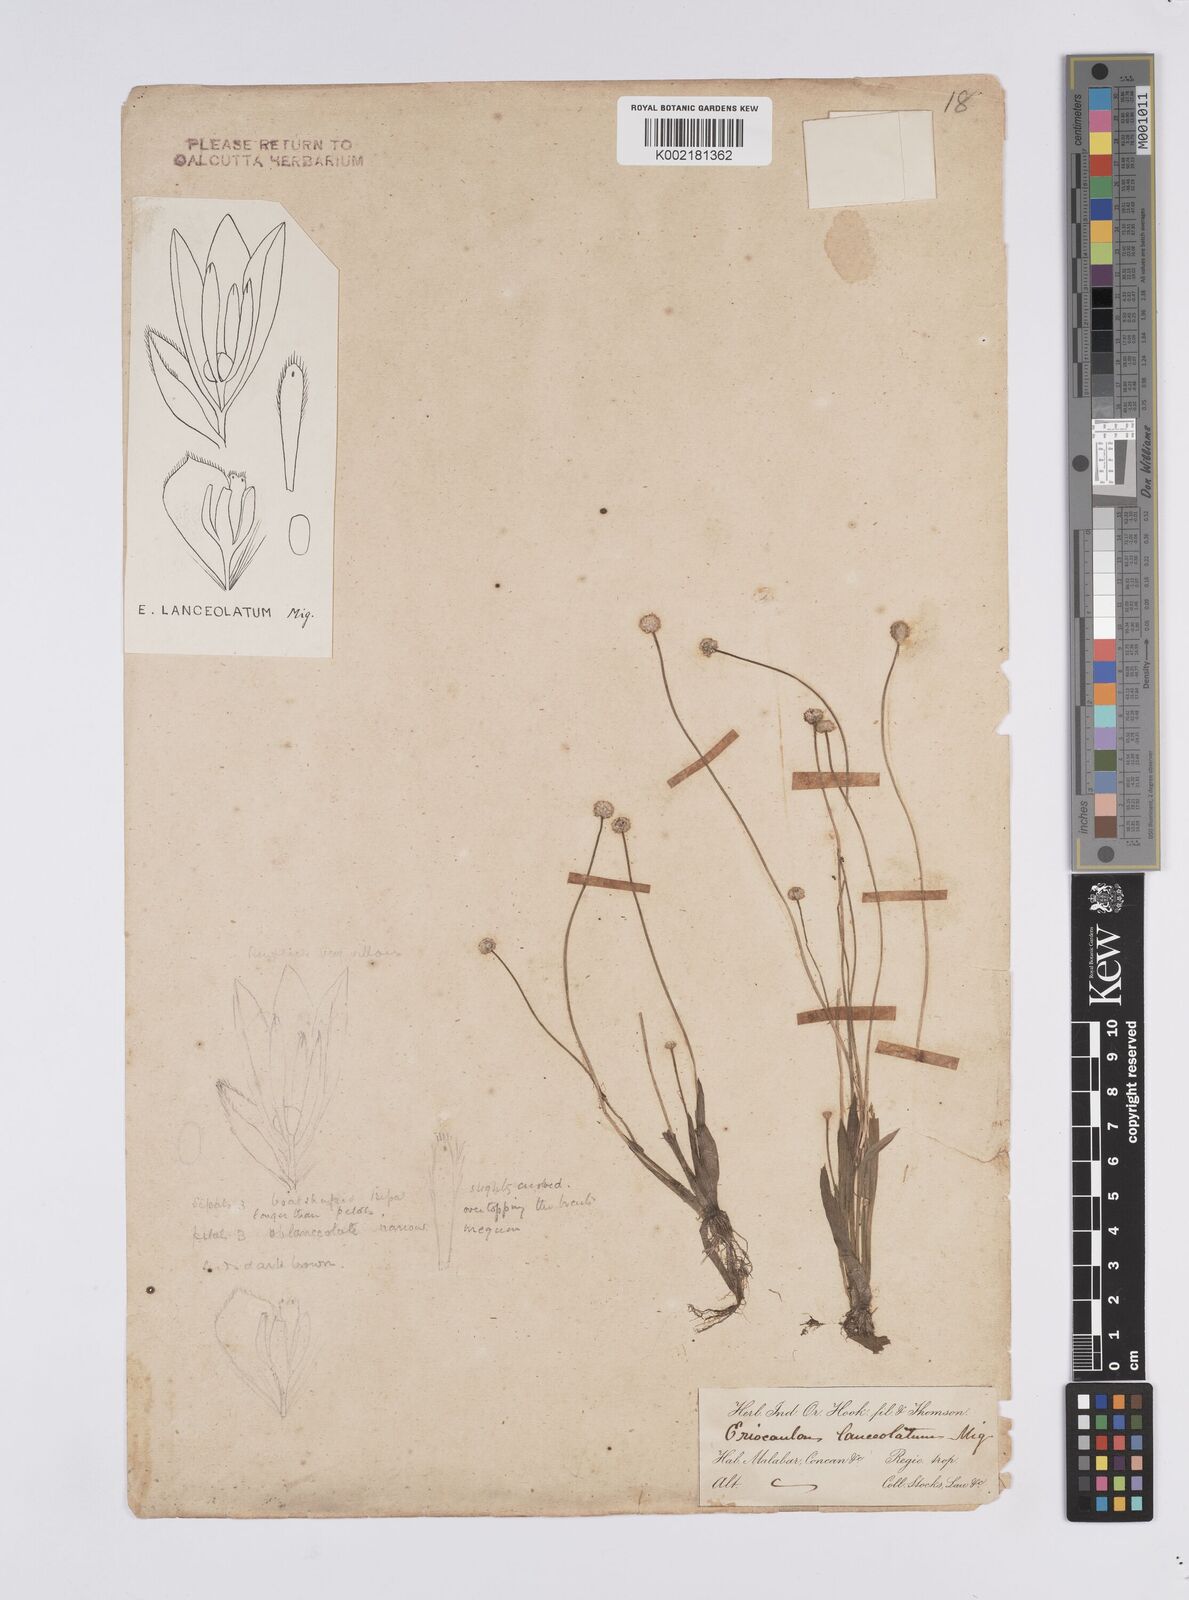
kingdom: Plantae
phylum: Tracheophyta
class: Liliopsida
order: Poales
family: Eriocaulaceae
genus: Eriocaulon
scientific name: Eriocaulon lanceolatum
